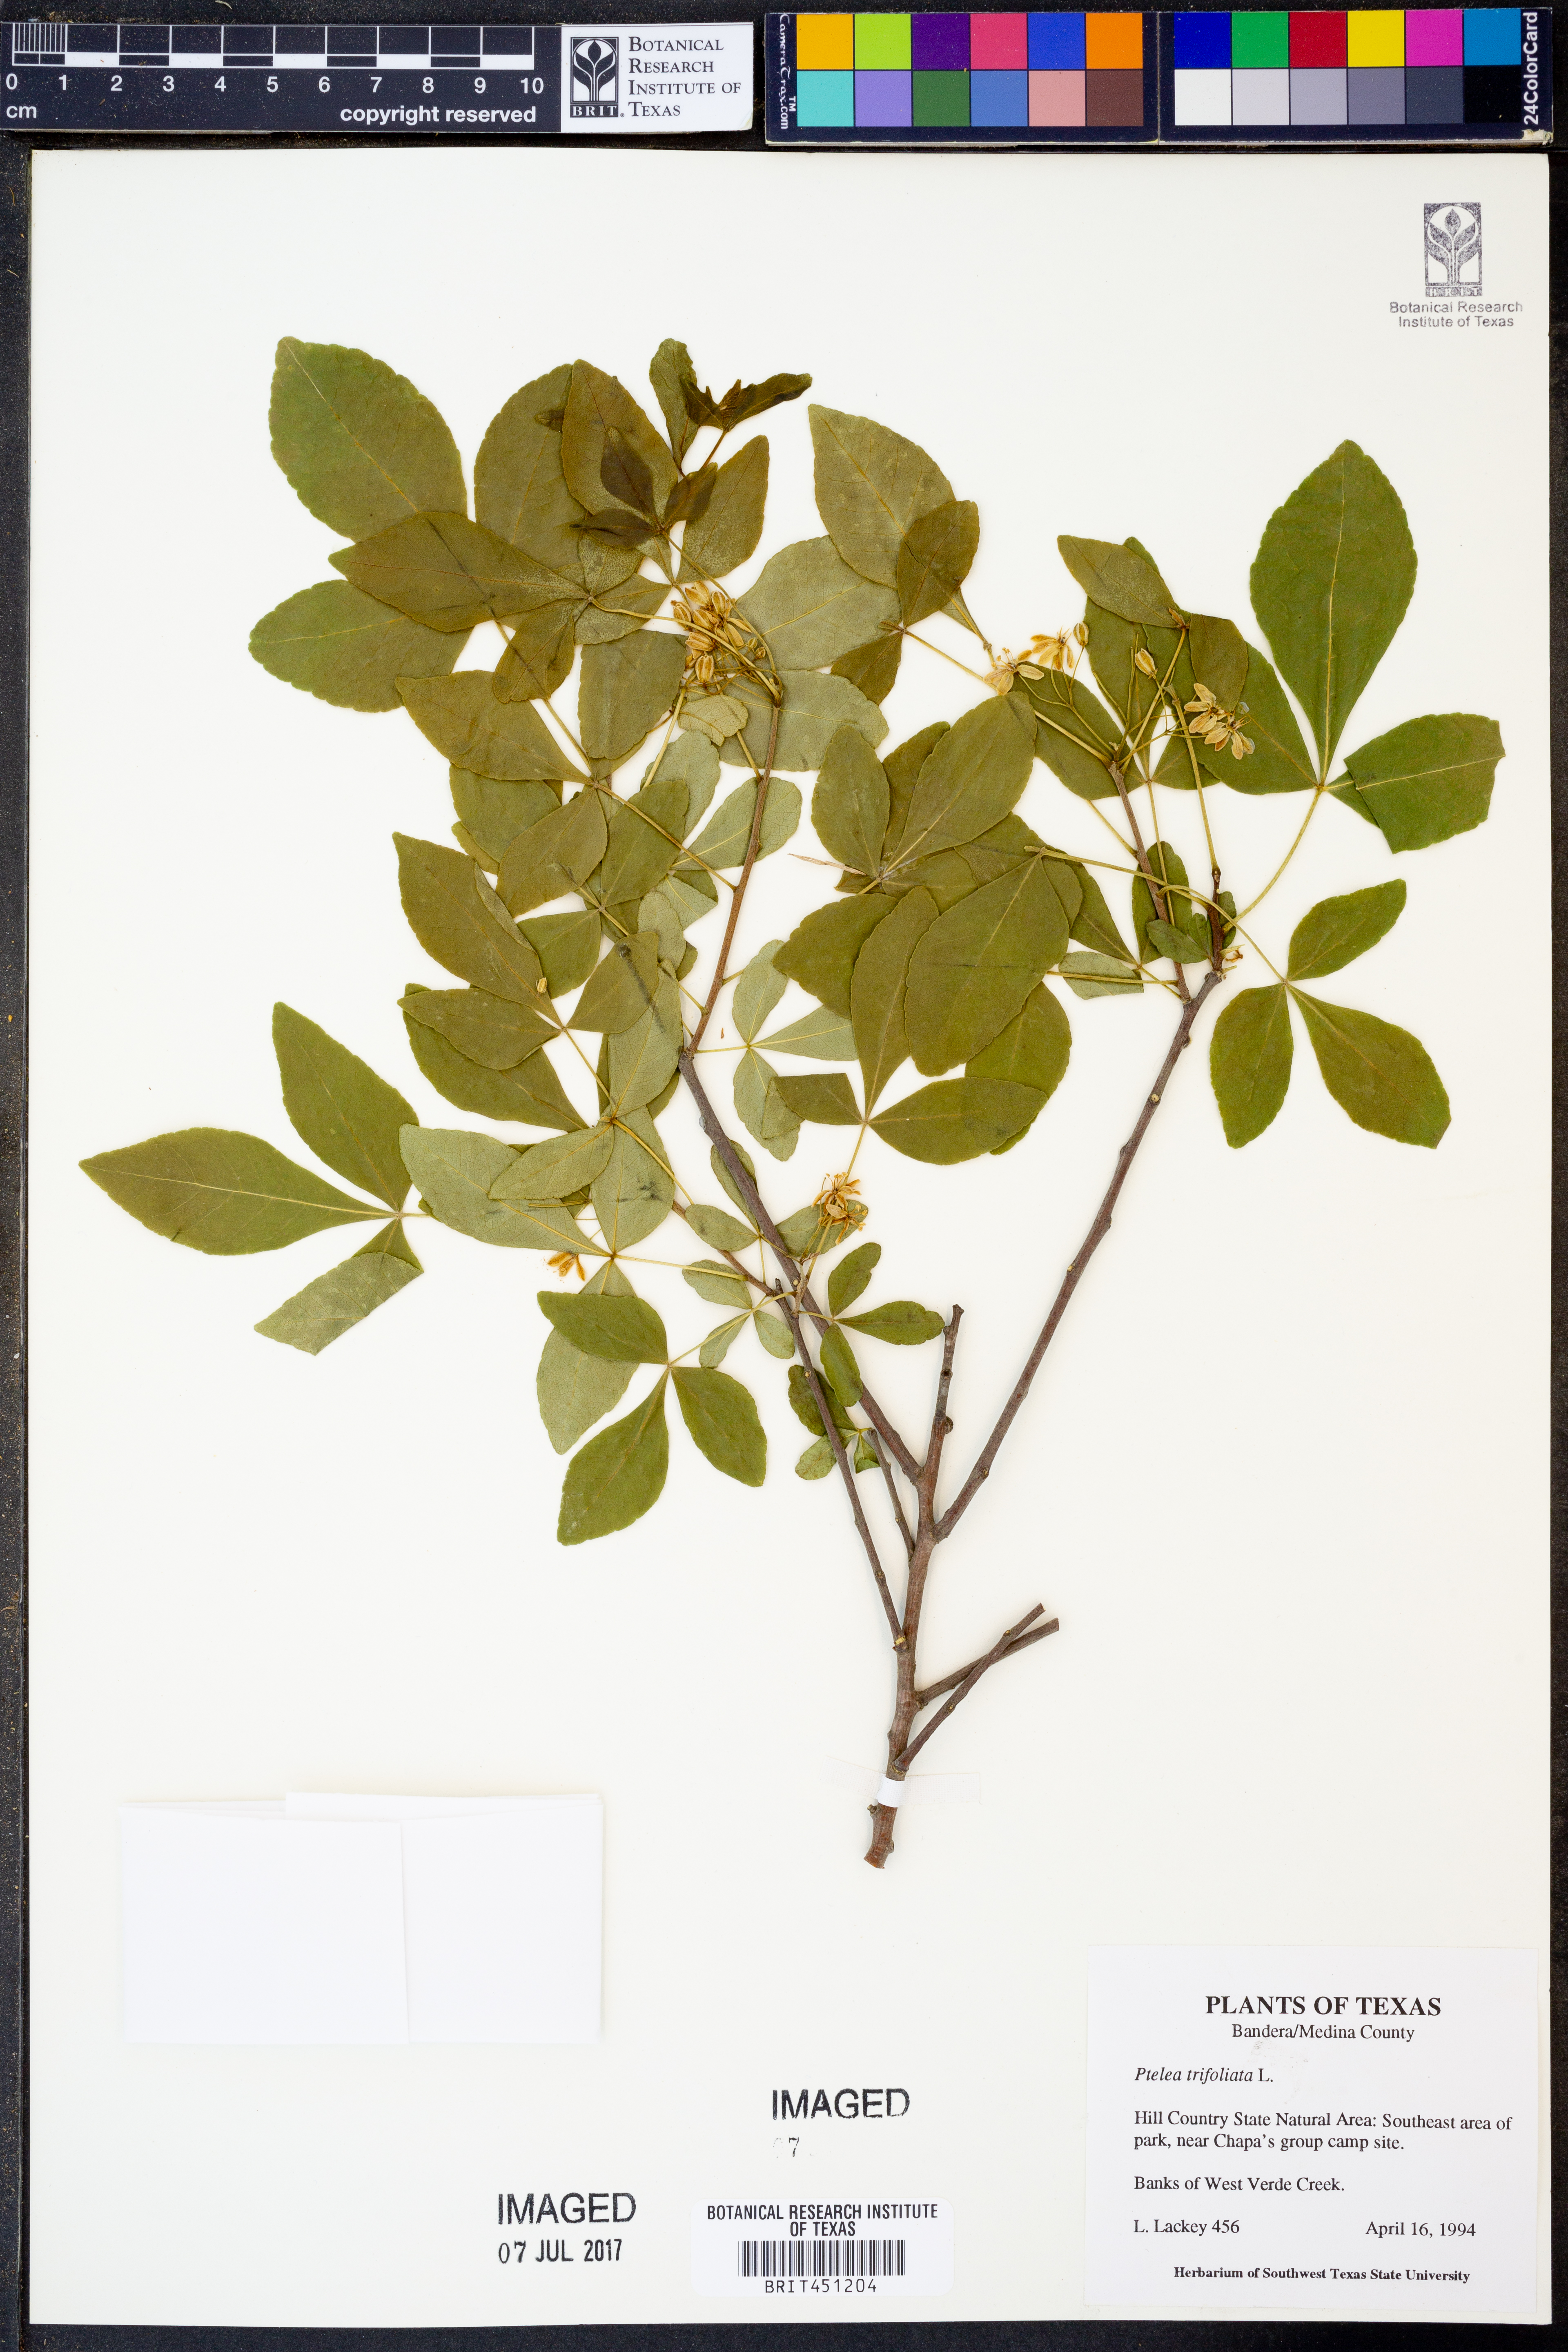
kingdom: Plantae
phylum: Tracheophyta
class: Magnoliopsida
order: Sapindales
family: Rutaceae
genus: Ptelea
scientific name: Ptelea trifoliata
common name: Common hop-tree
